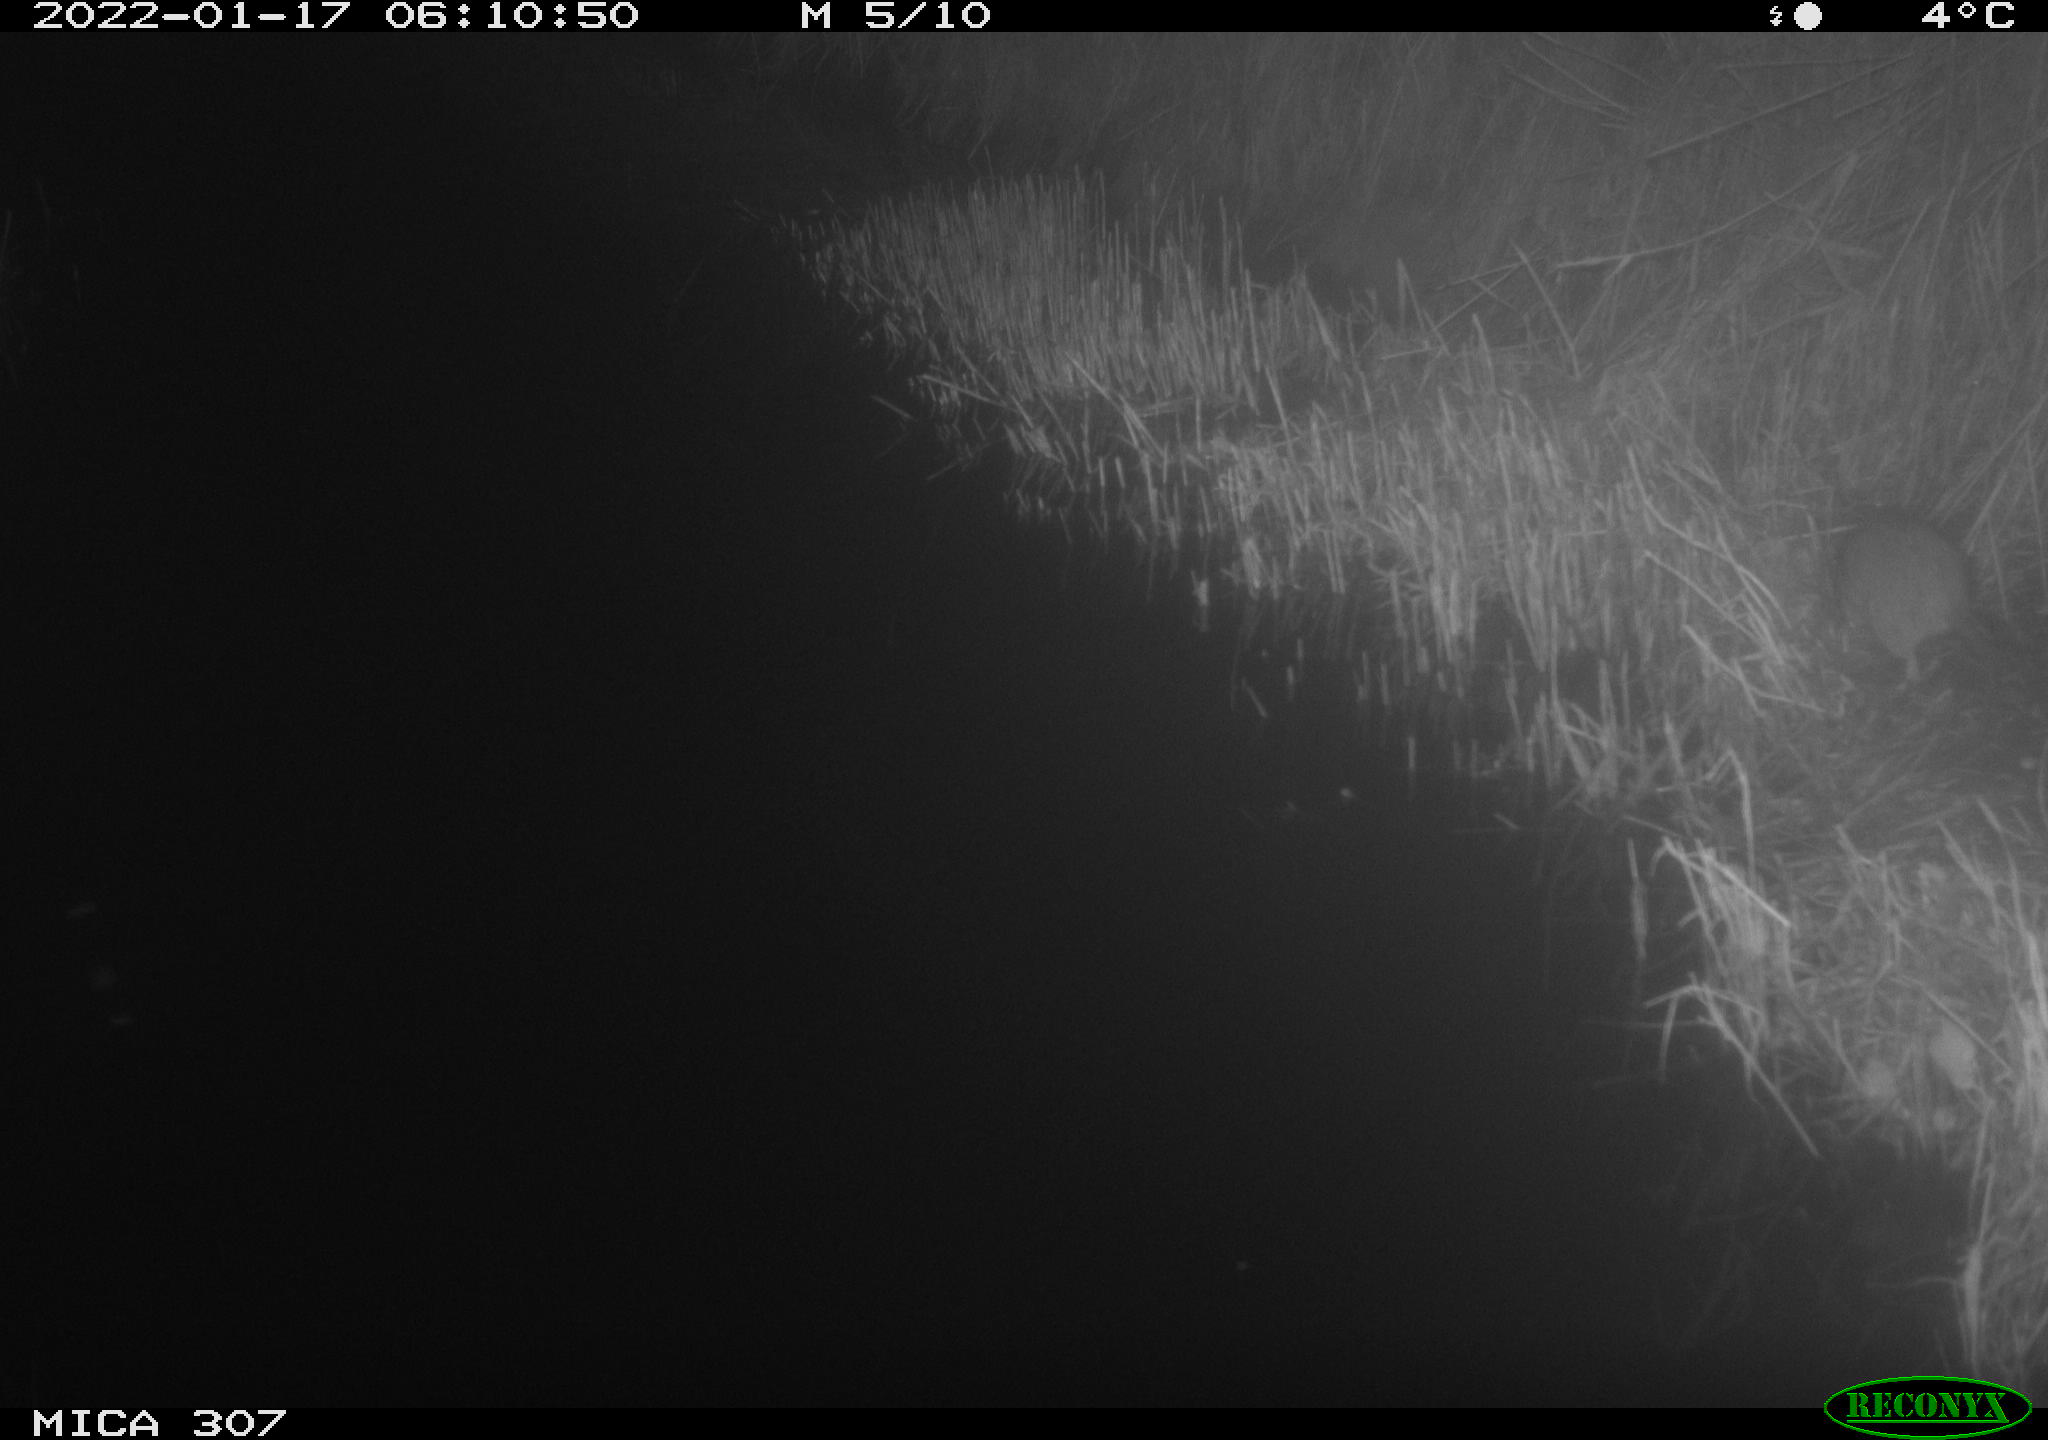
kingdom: Animalia
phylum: Chordata
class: Mammalia
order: Rodentia
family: Muridae
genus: Rattus
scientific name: Rattus norvegicus
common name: Brown rat
